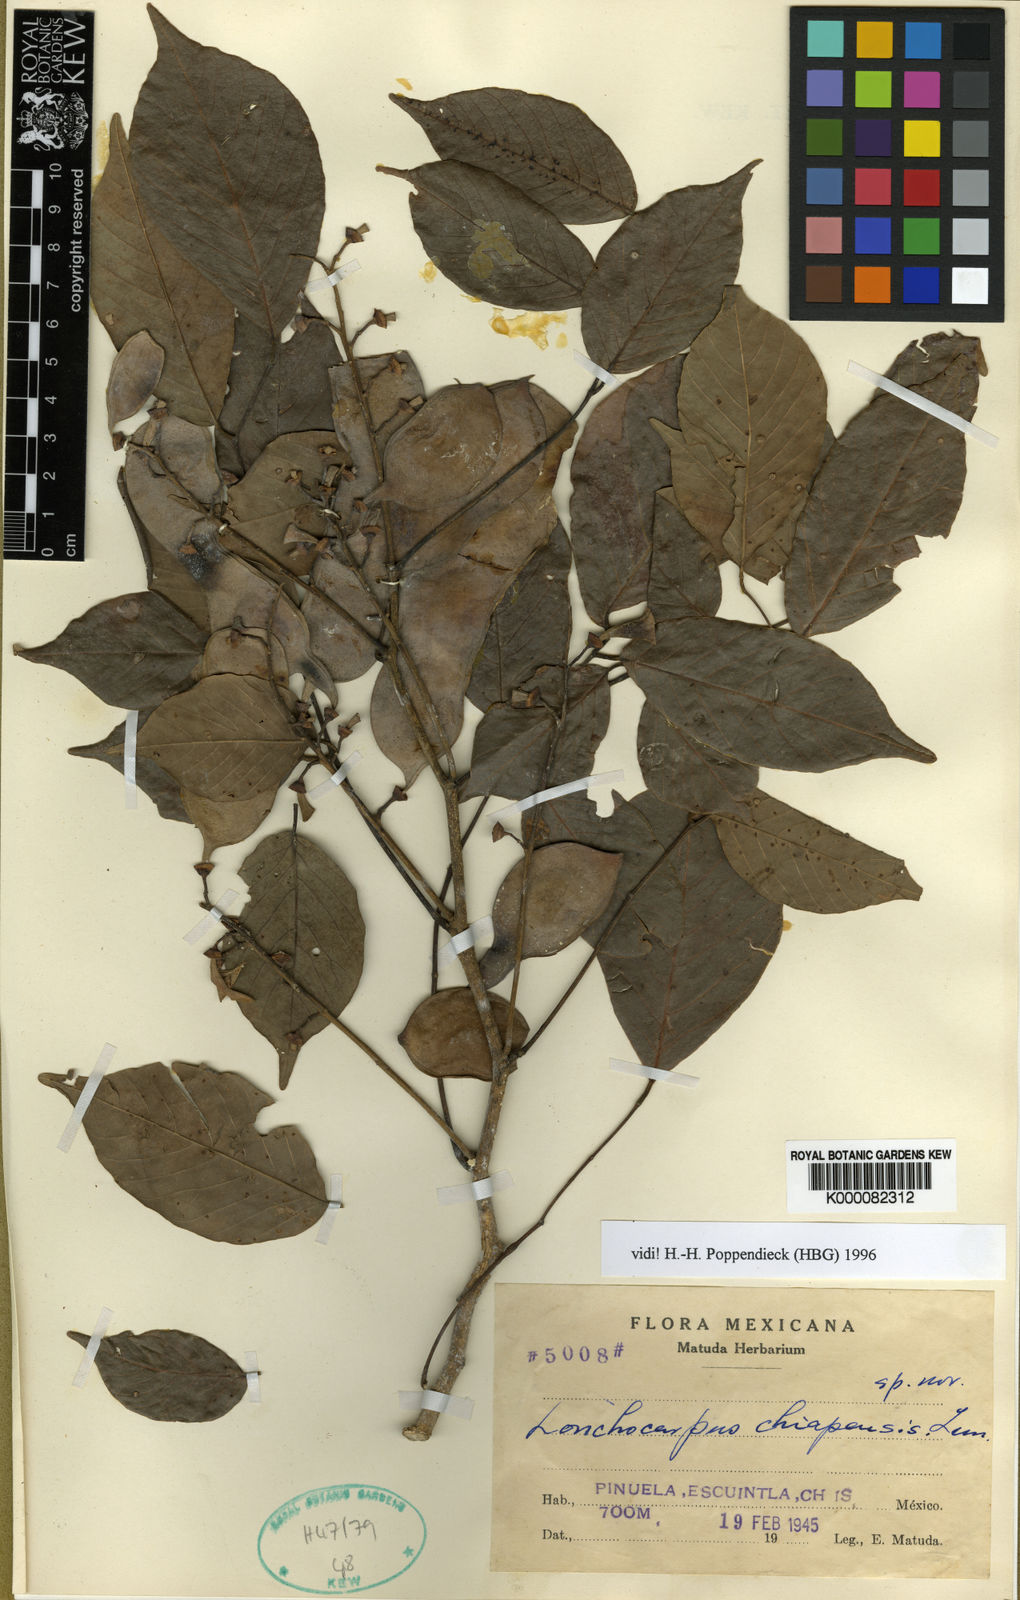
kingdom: Plantae
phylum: Tracheophyta
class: Magnoliopsida
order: Fabales
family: Fabaceae
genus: Lonchocarpus
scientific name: Lonchocarpus acuminatus
